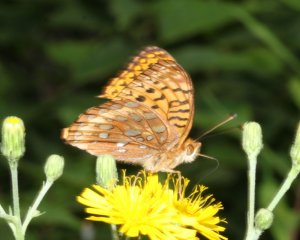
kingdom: Animalia
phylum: Arthropoda
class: Insecta
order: Lepidoptera
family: Nymphalidae
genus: Speyeria
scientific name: Speyeria cybele
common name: Great Spangled Fritillary
